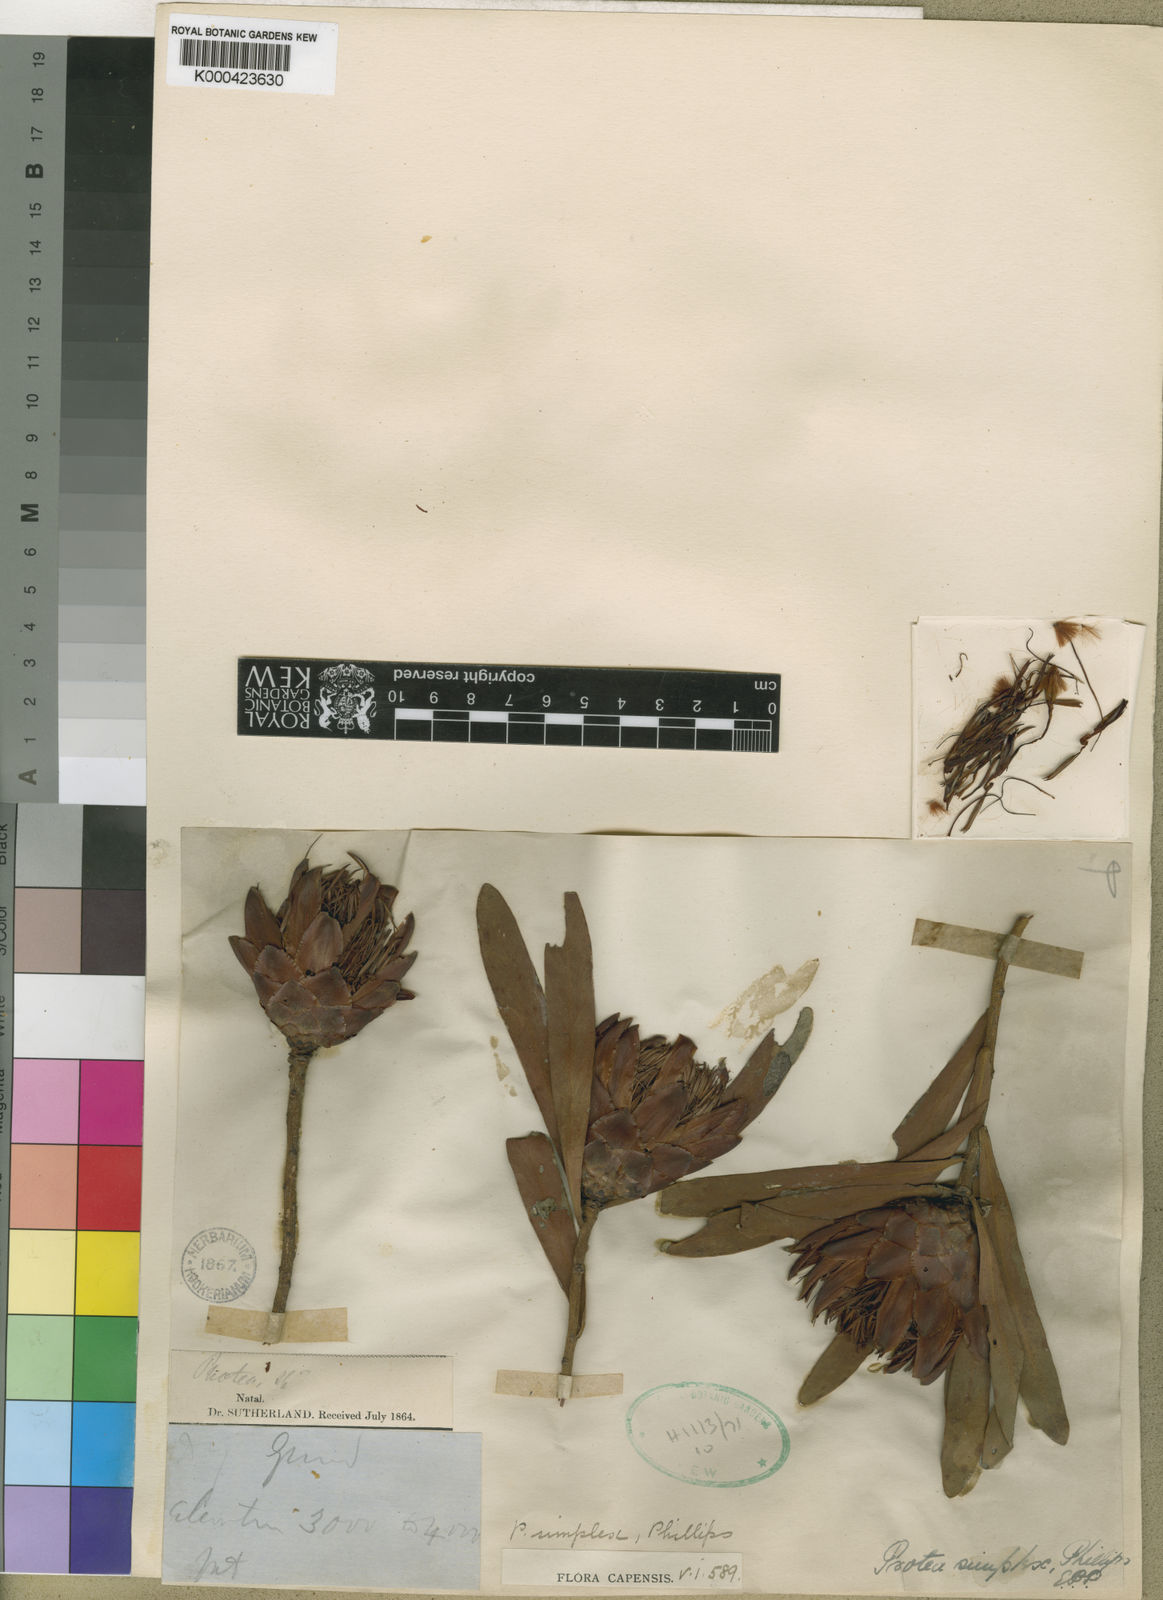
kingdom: Plantae
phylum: Tracheophyta
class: Magnoliopsida
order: Proteales
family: Proteaceae
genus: Protea
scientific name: Protea simplex
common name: Dwarf grassveld sugarbush
